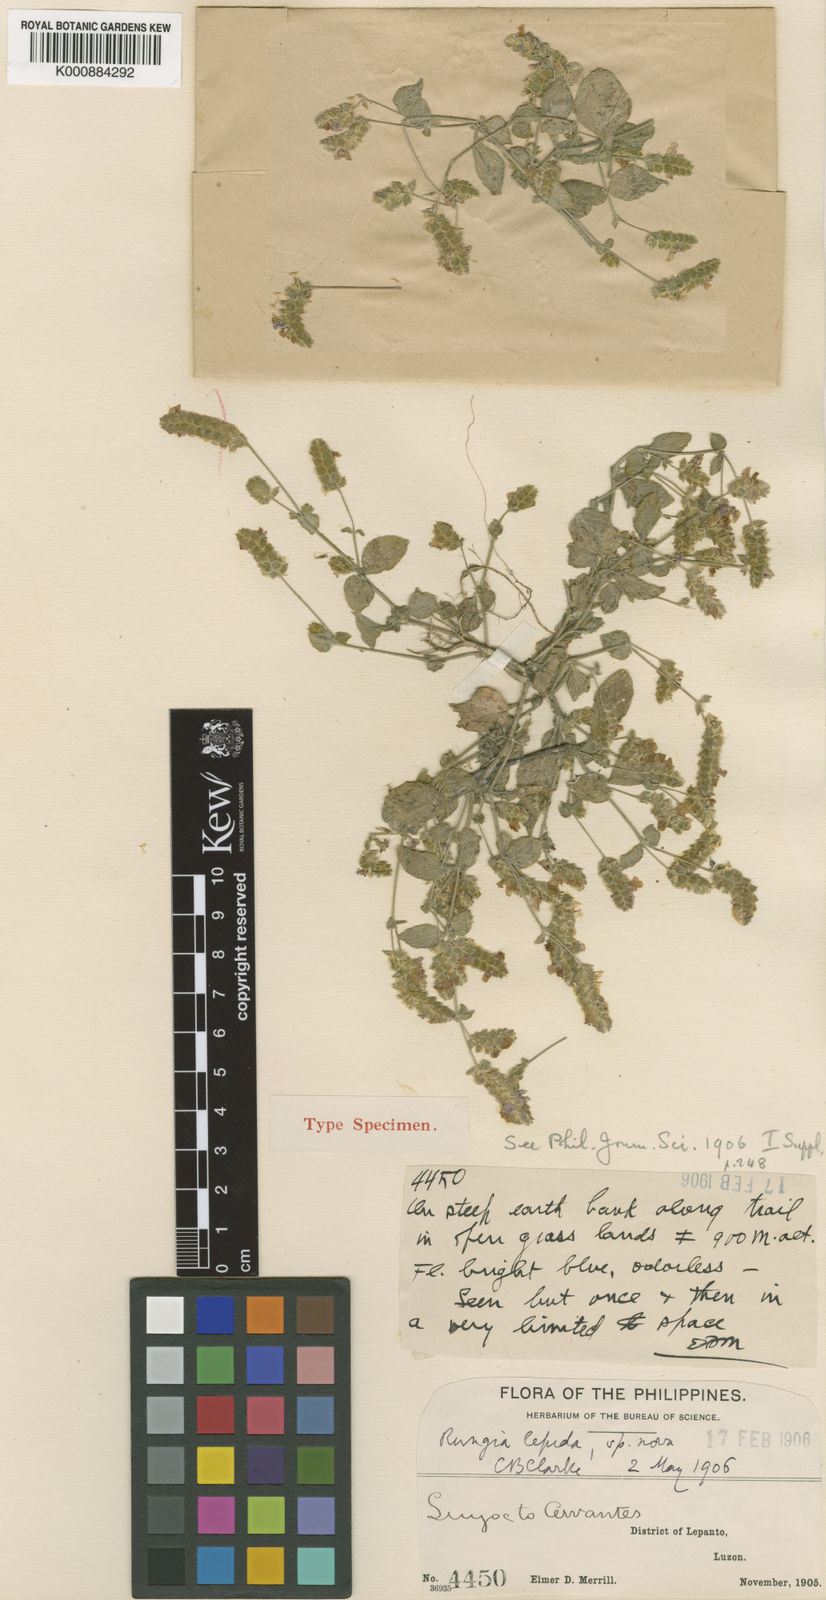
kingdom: Plantae
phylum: Tracheophyta
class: Magnoliopsida
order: Lamiales
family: Acanthaceae
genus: Justicia
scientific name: Justicia lepida
